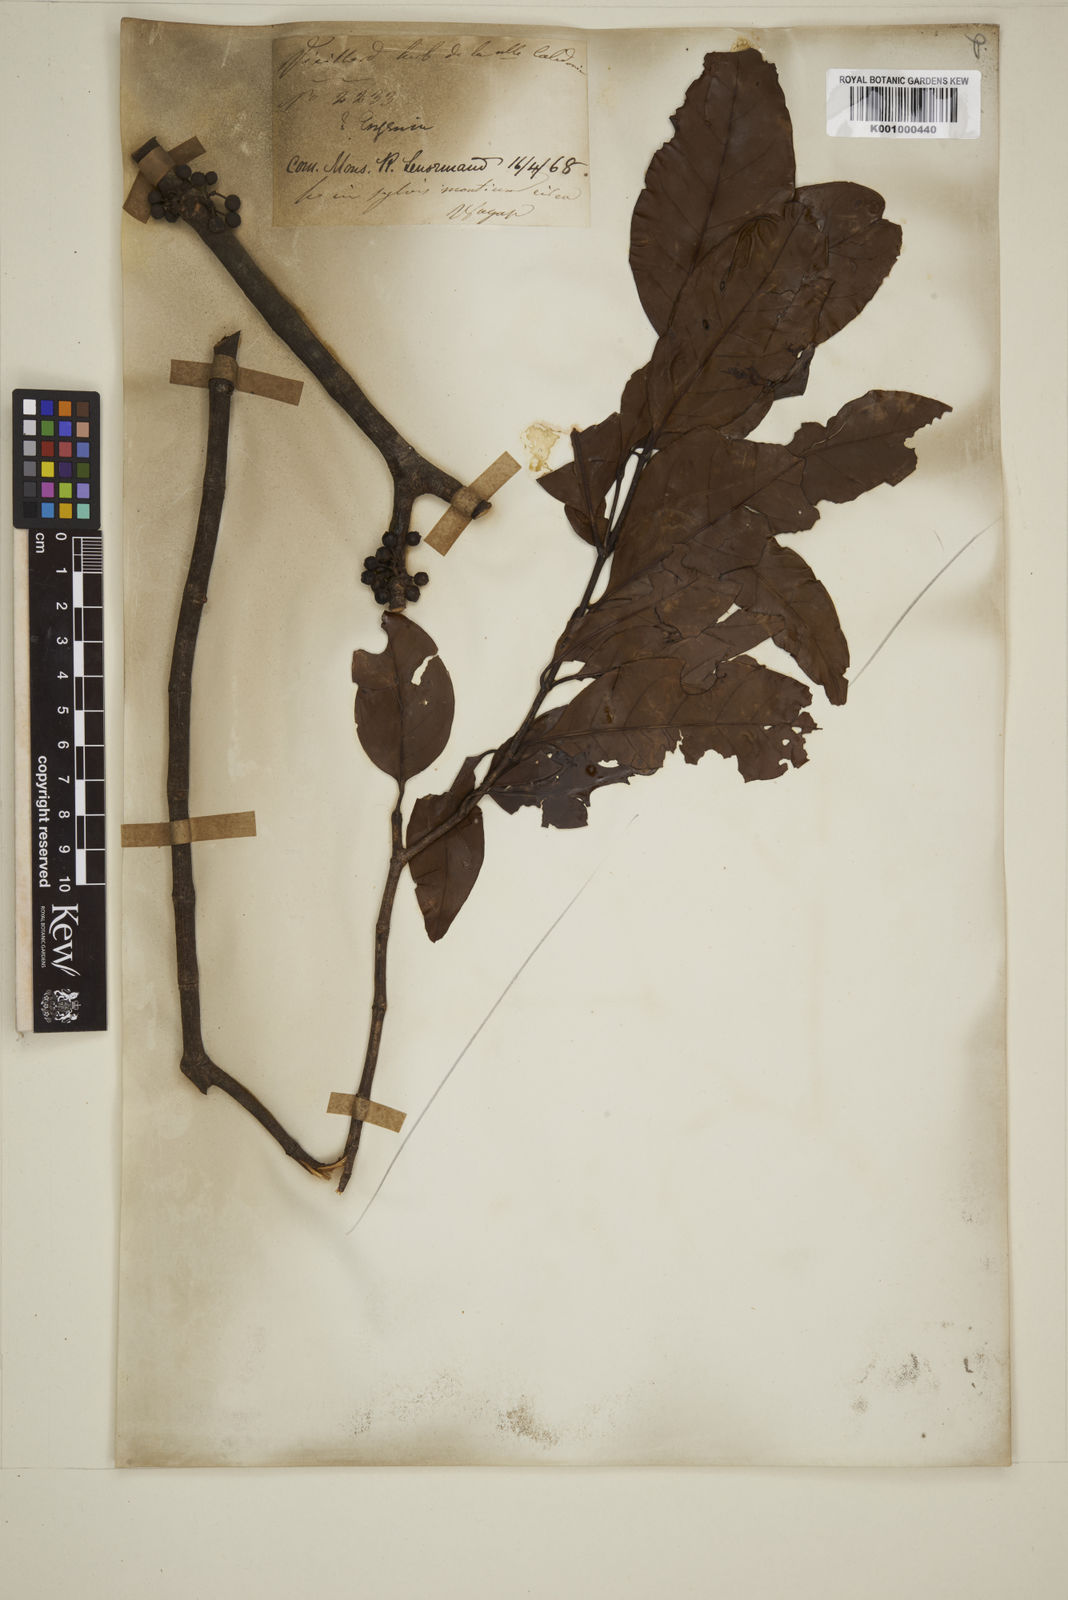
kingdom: Plantae
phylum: Tracheophyta
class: Magnoliopsida
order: Myrtales
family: Myrtaceae
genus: Eugenia
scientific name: Eugenia
